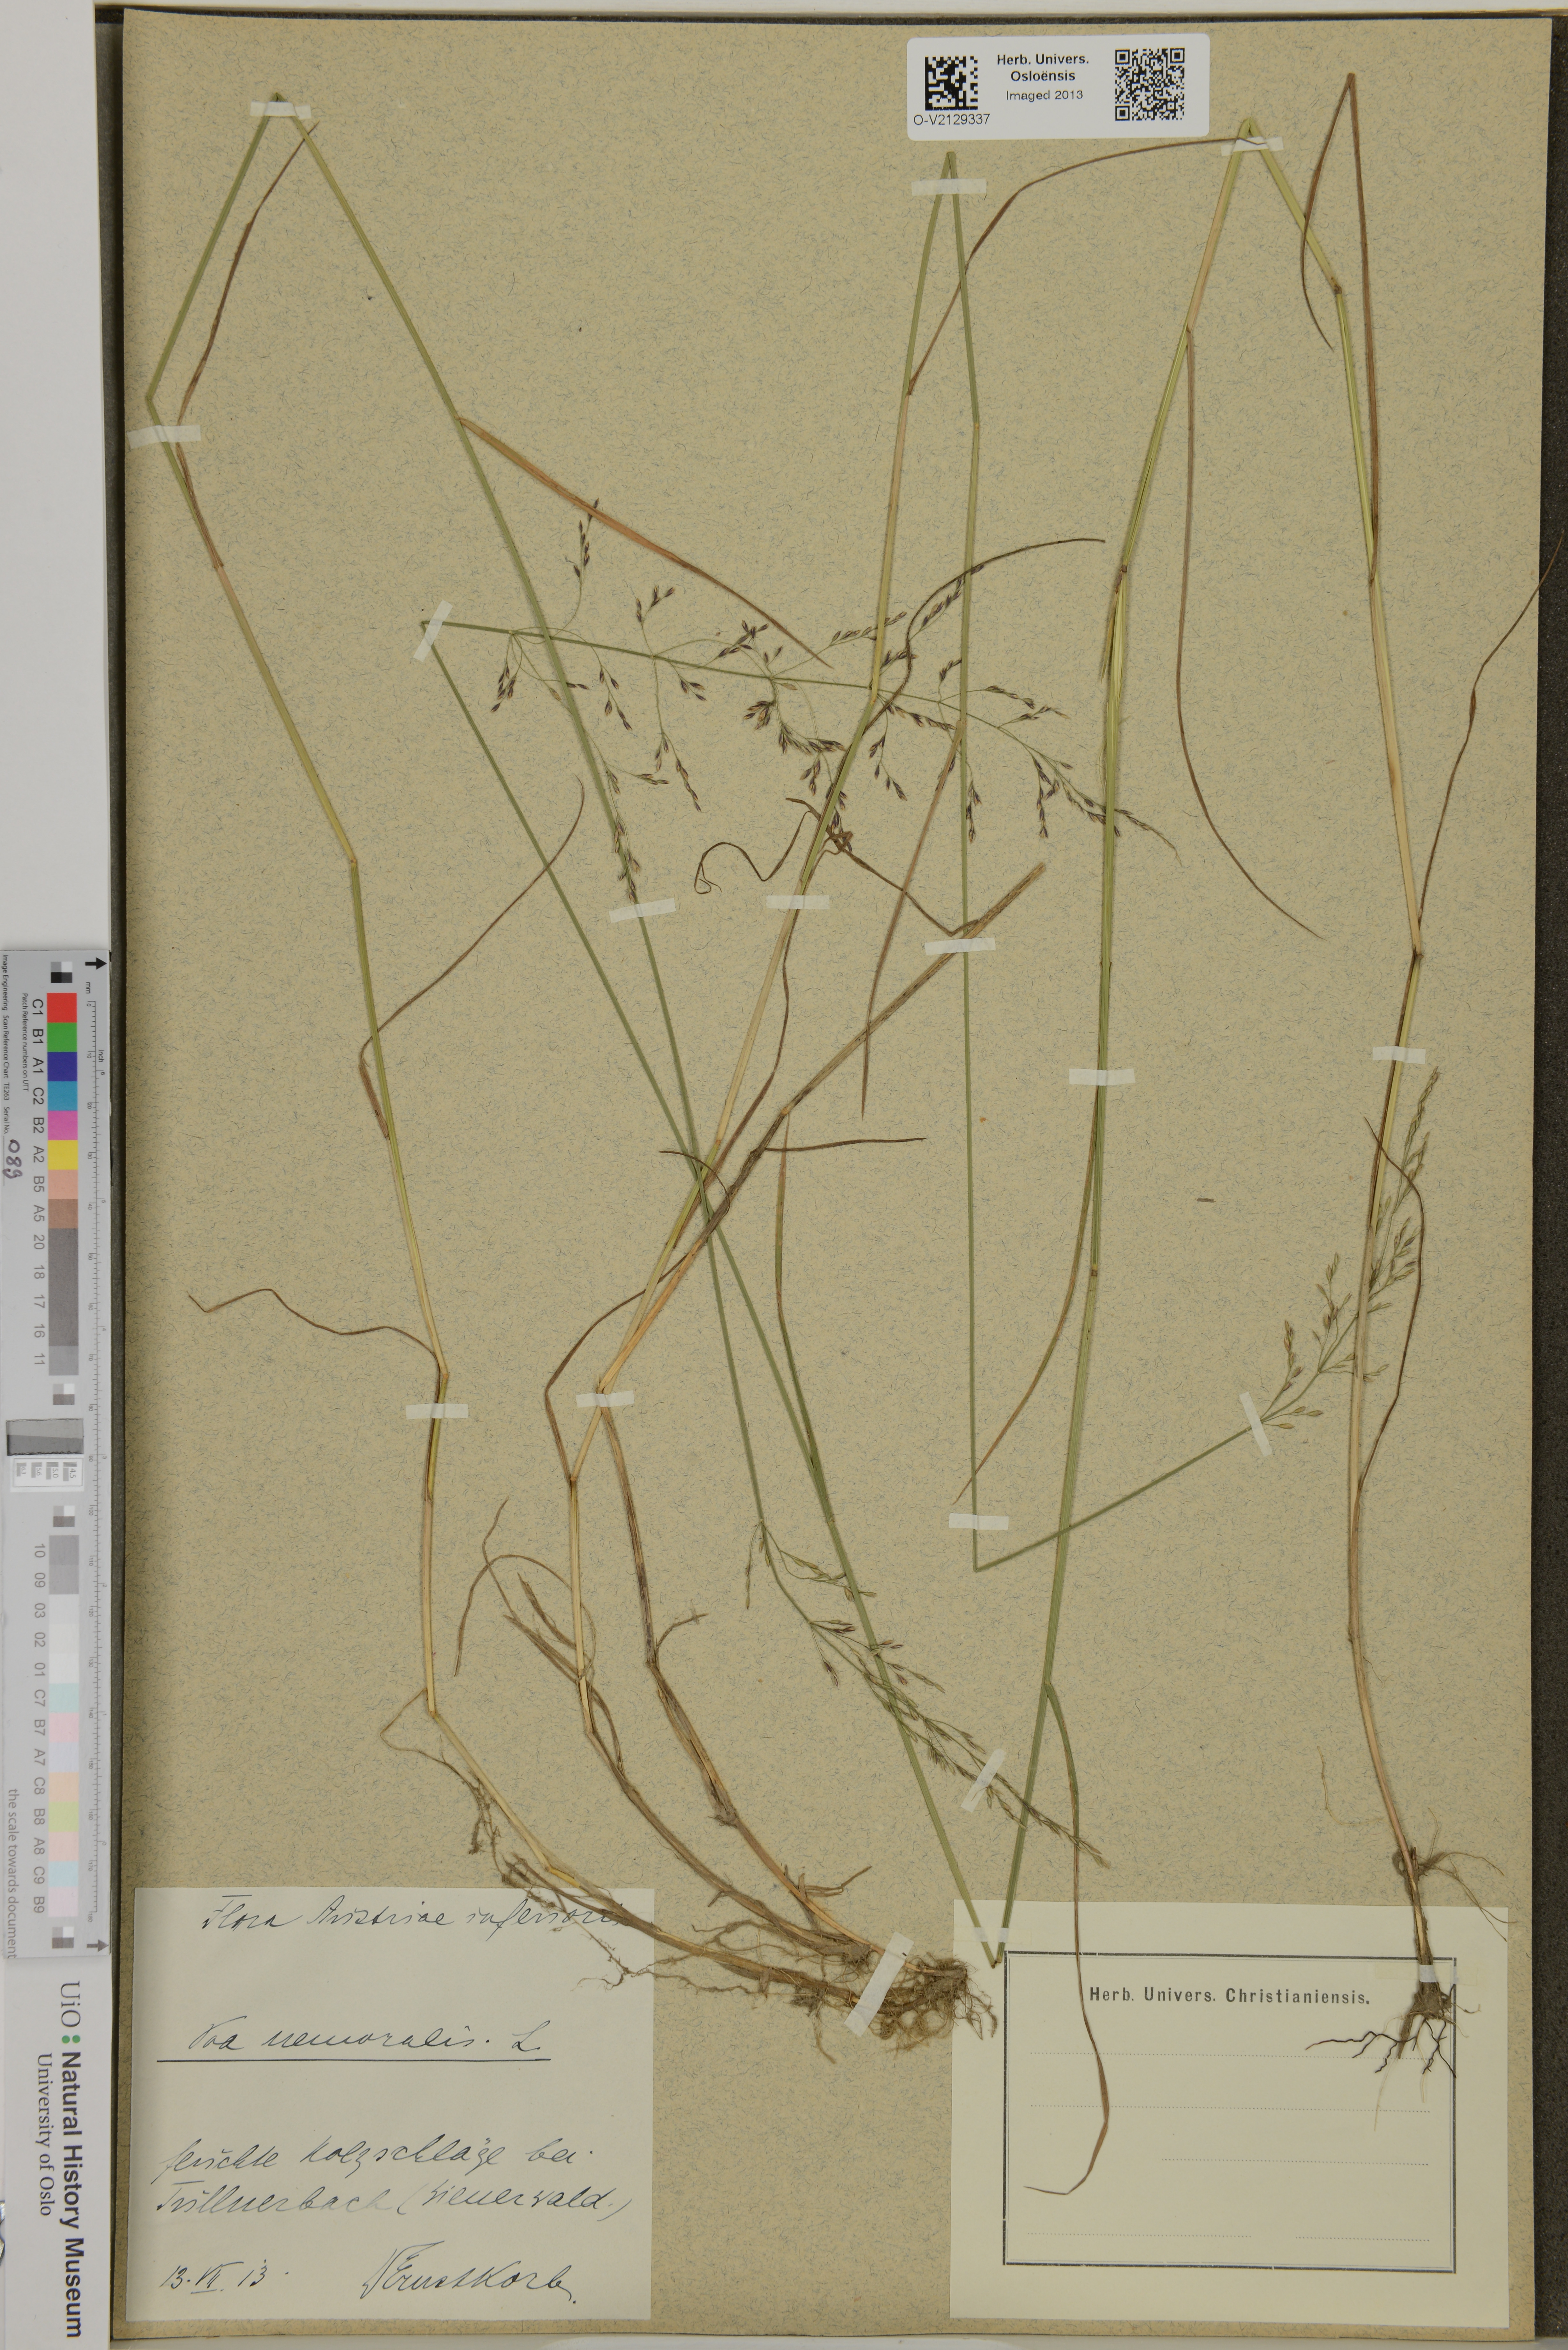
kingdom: Plantae
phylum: Tracheophyta
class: Liliopsida
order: Poales
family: Poaceae
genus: Poa
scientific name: Poa nemoralis
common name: Wood bluegrass
